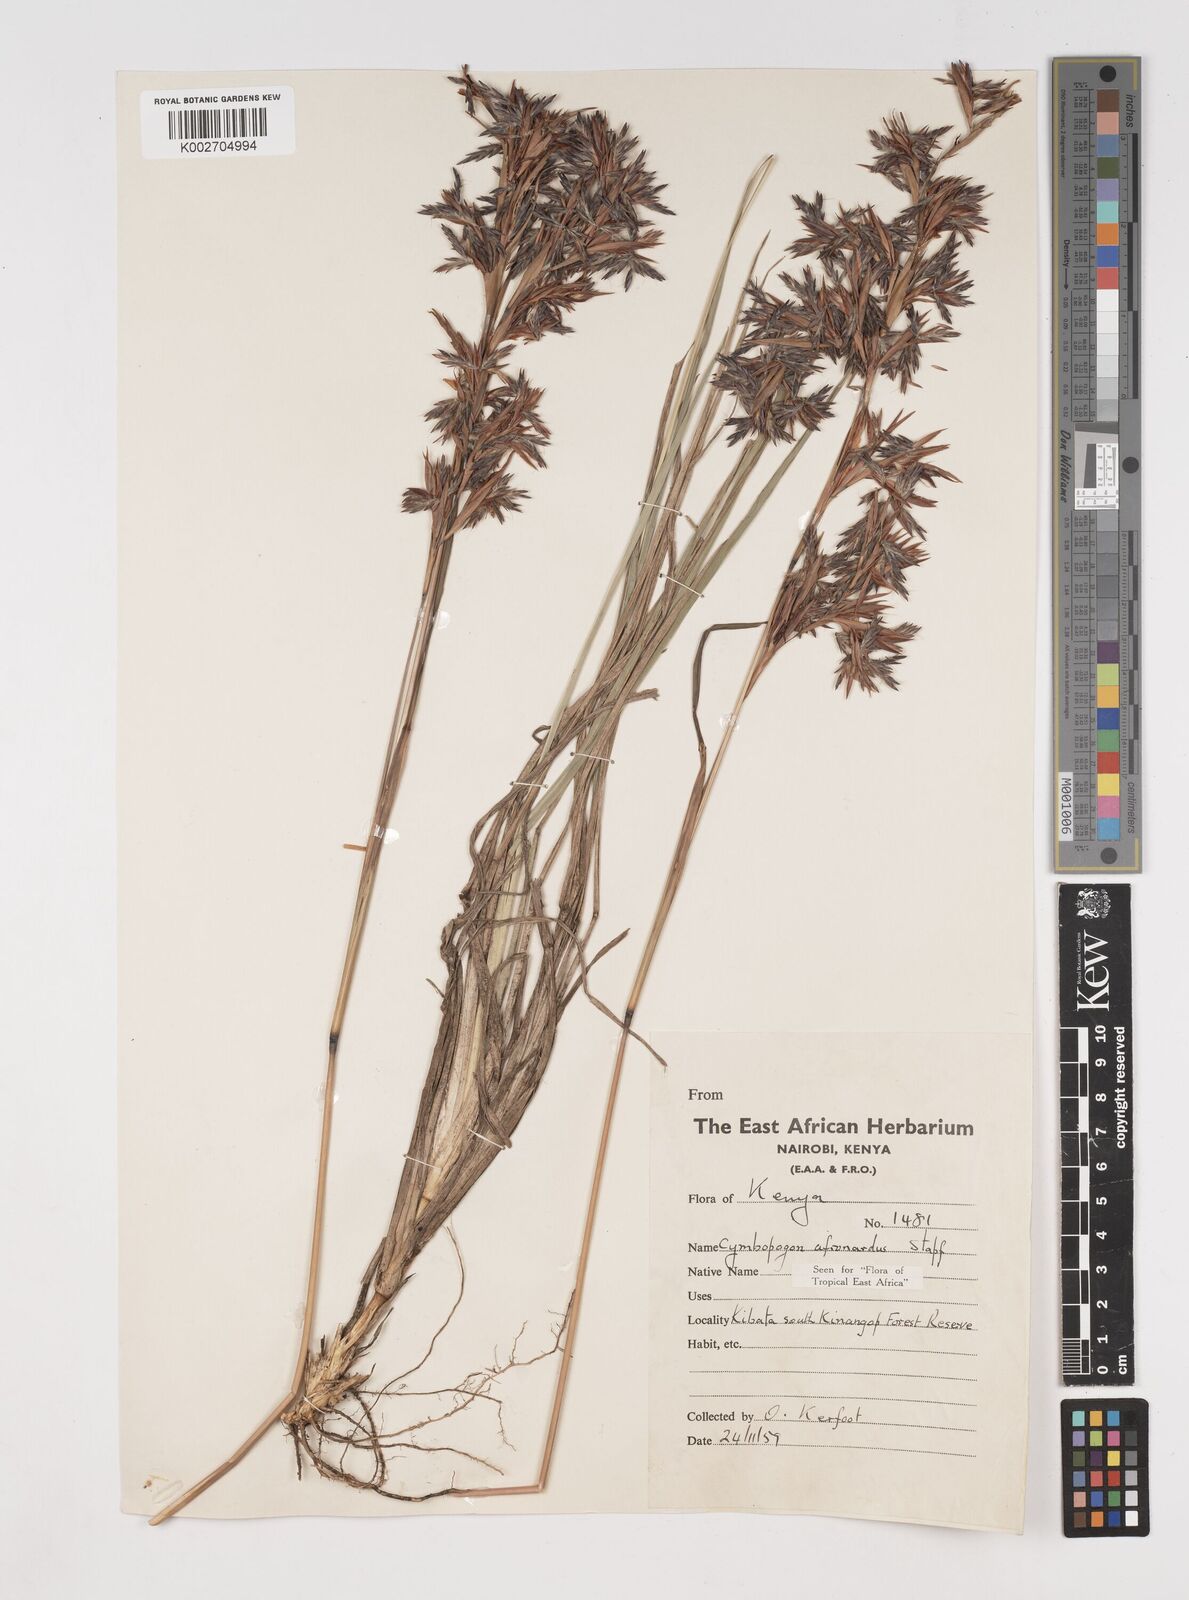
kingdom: Plantae
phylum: Tracheophyta
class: Liliopsida
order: Poales
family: Poaceae
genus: Cymbopogon
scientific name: Cymbopogon nardus
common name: Giant turpentine grass
